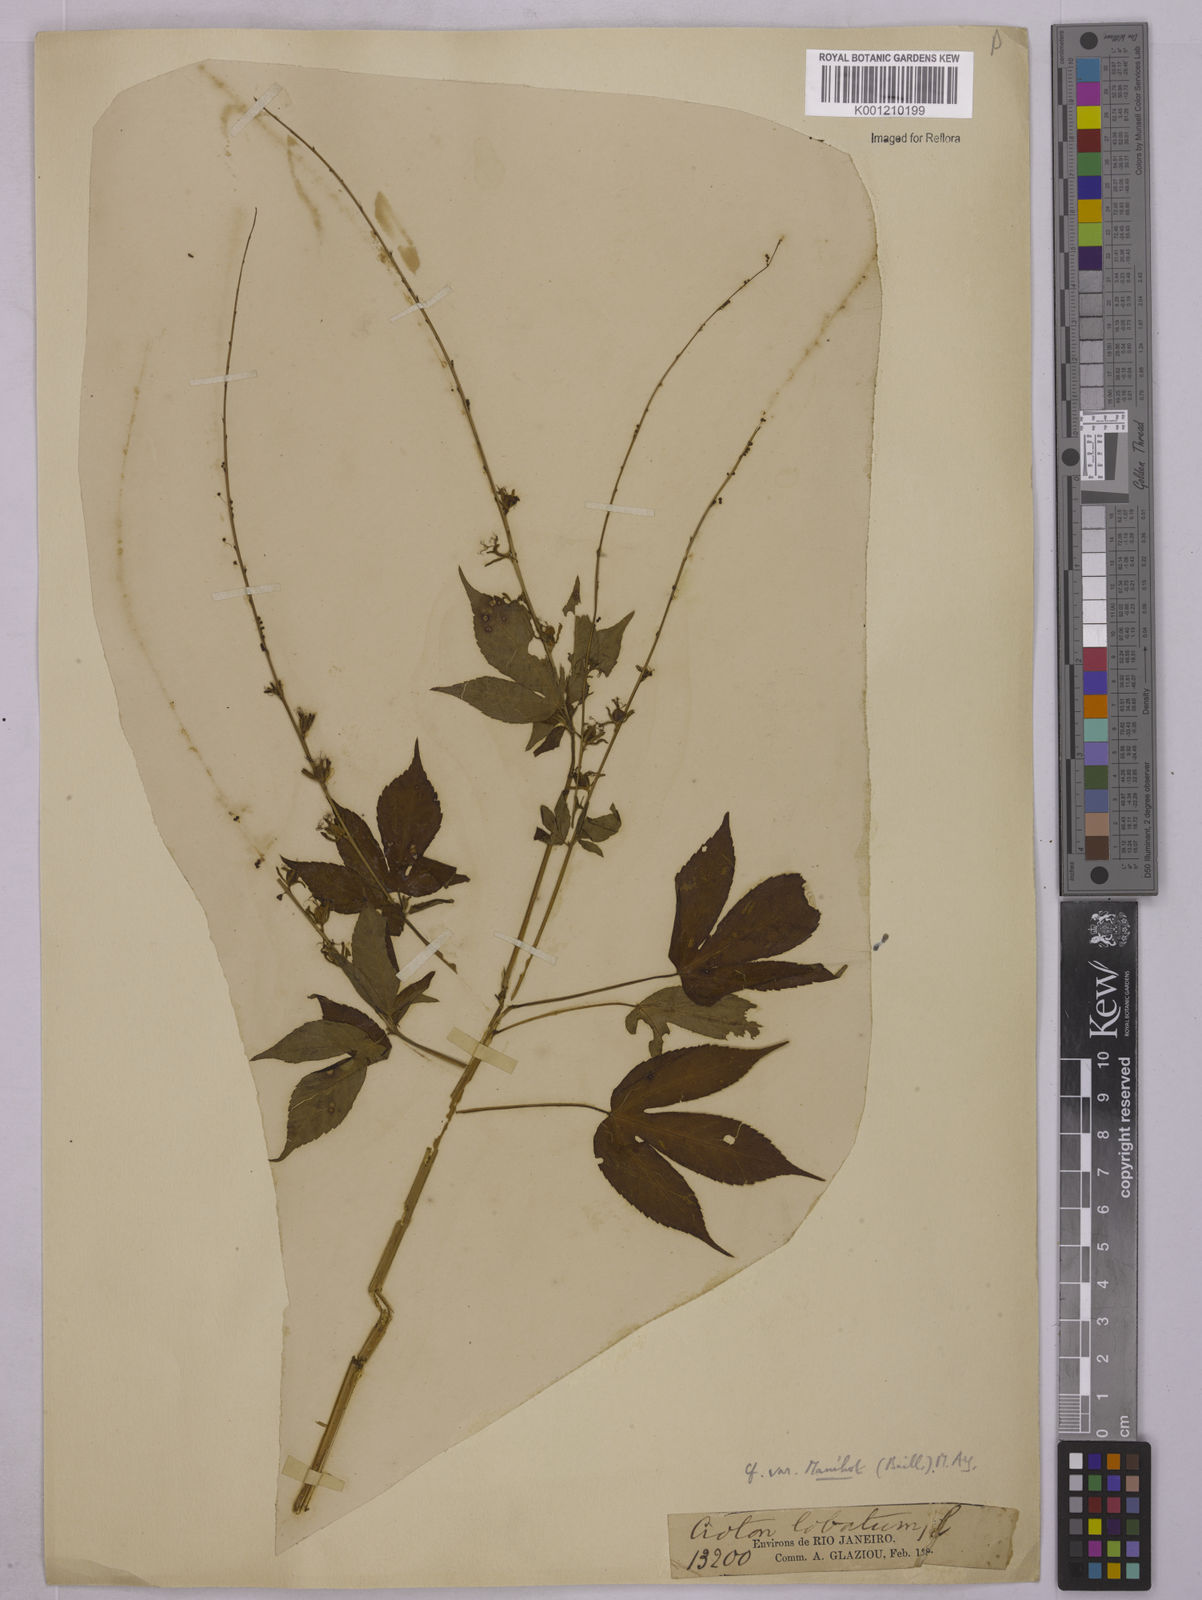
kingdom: Plantae
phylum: Tracheophyta
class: Magnoliopsida
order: Malpighiales
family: Euphorbiaceae
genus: Astraea
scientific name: Astraea lobata
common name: Lobed croton
